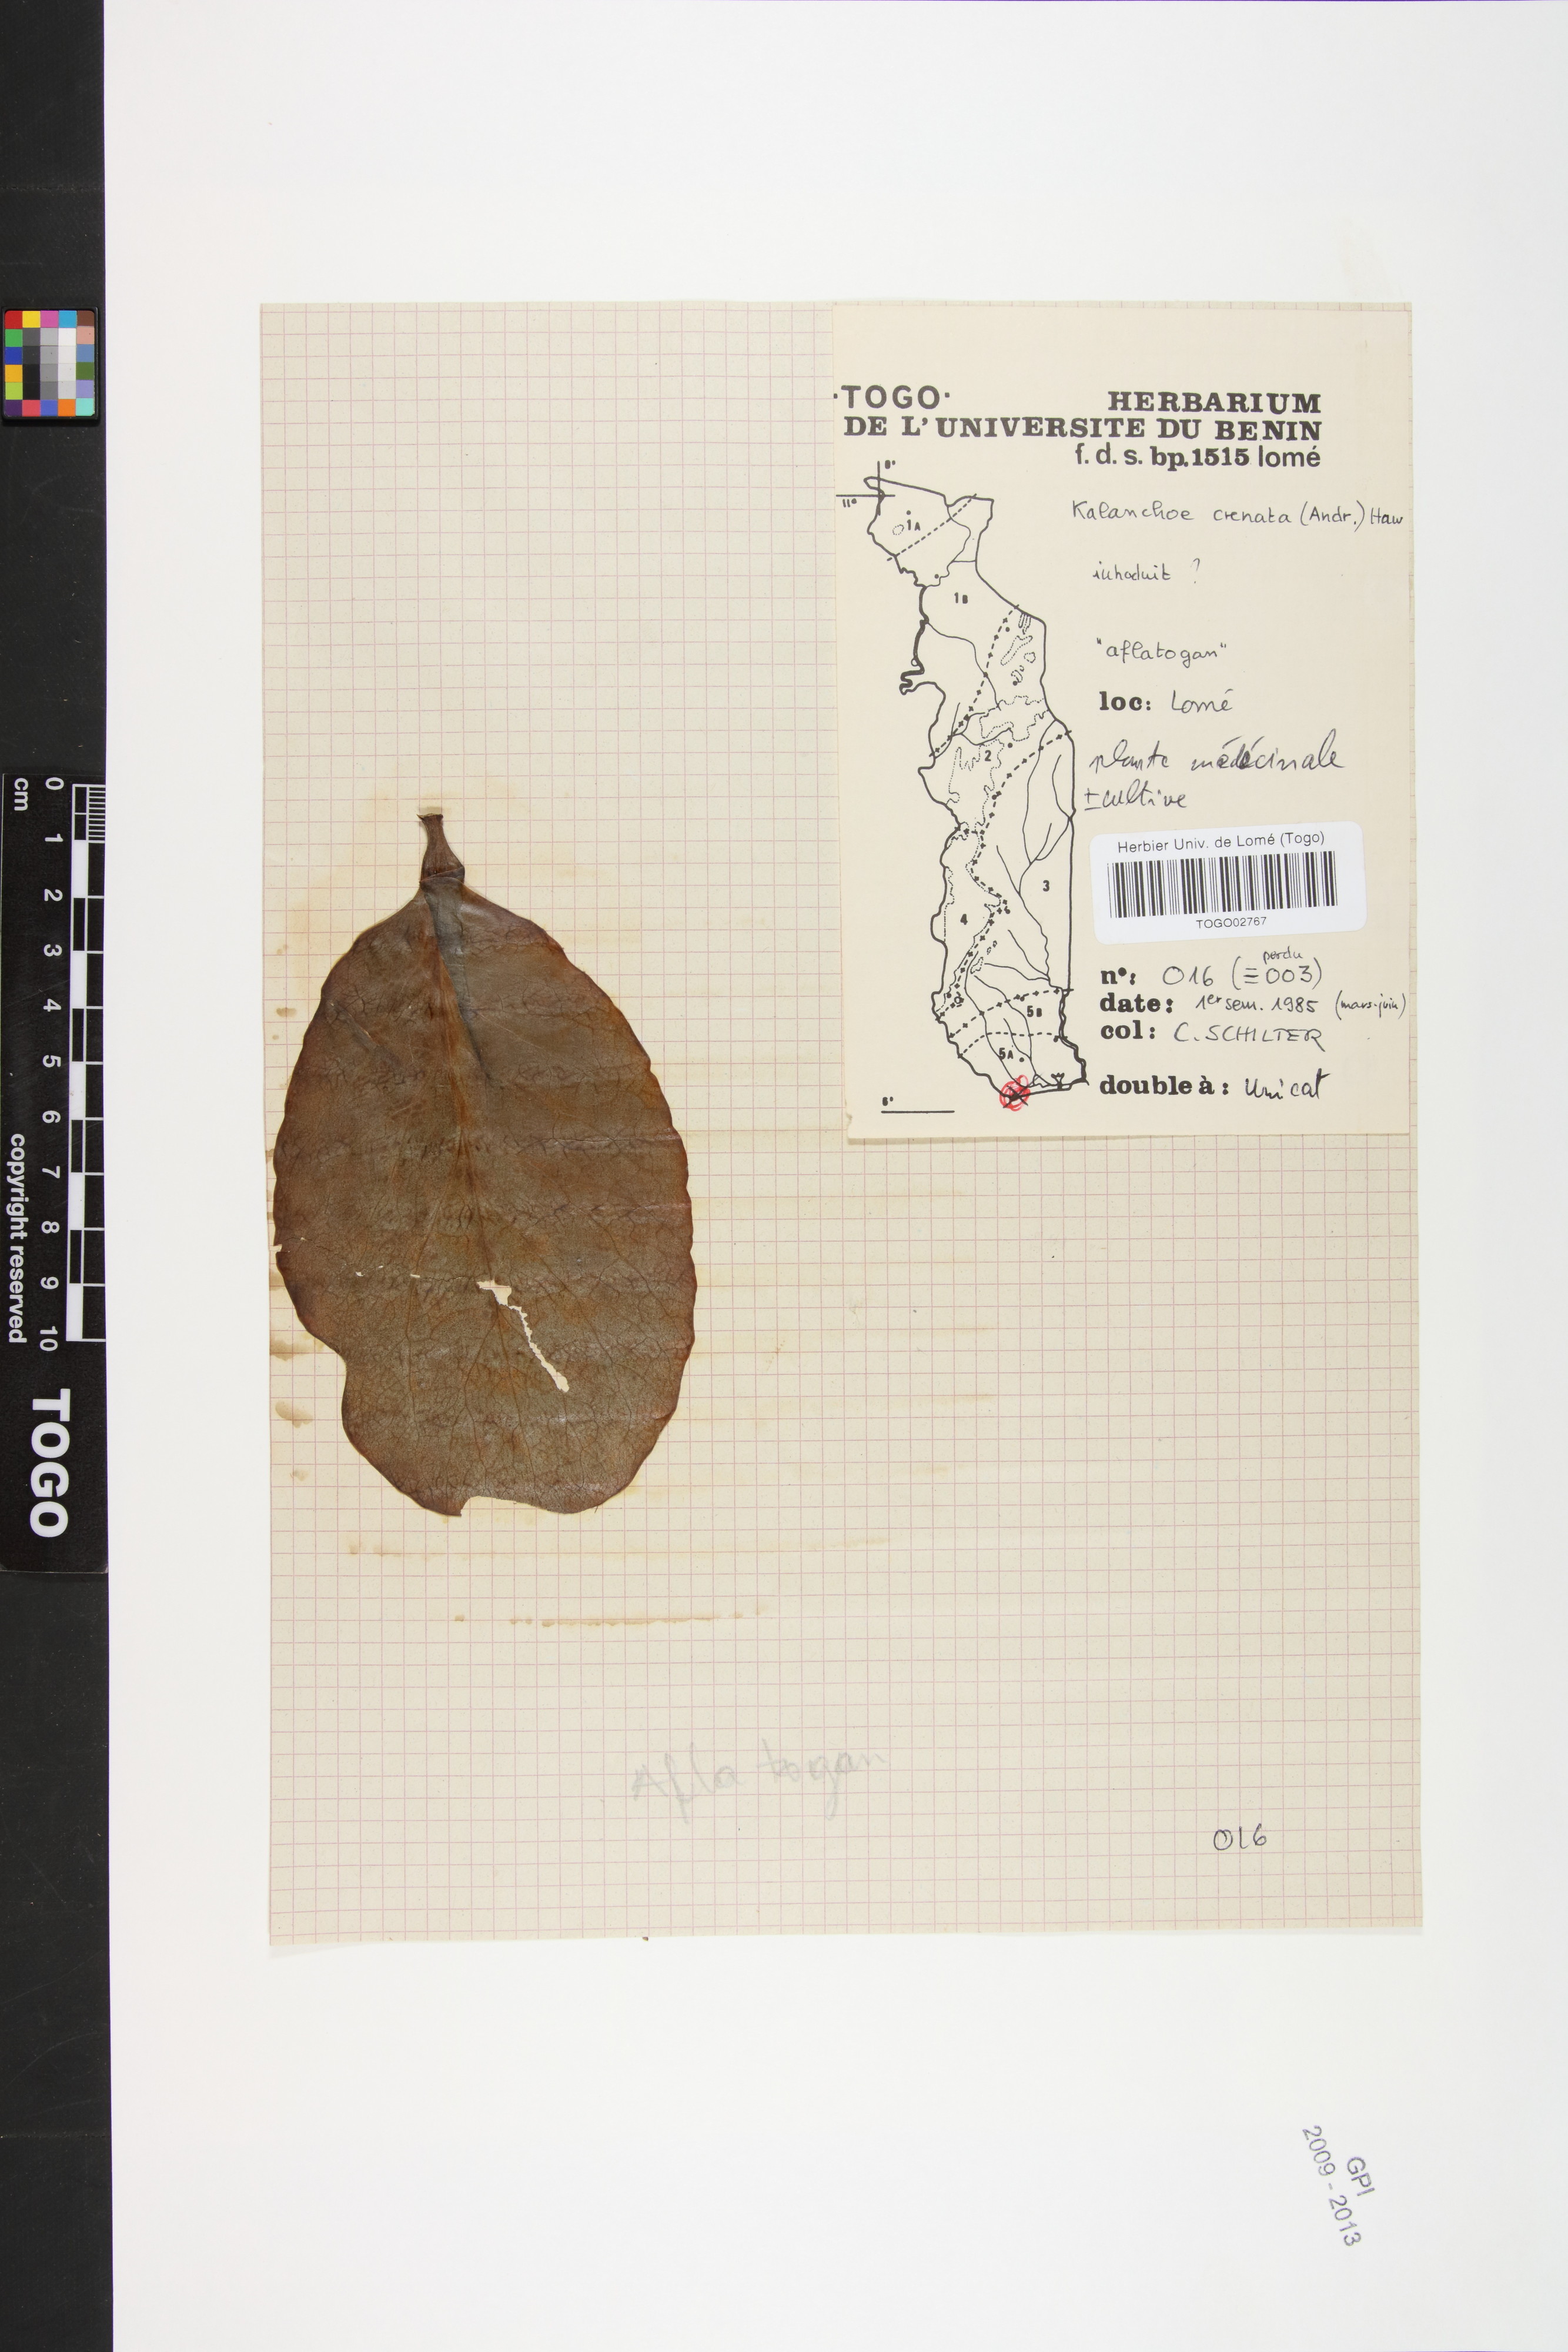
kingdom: Plantae
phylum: Tracheophyta
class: Magnoliopsida
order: Saxifragales
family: Crassulaceae
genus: Kalanchoe
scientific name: Kalanchoe crenata
